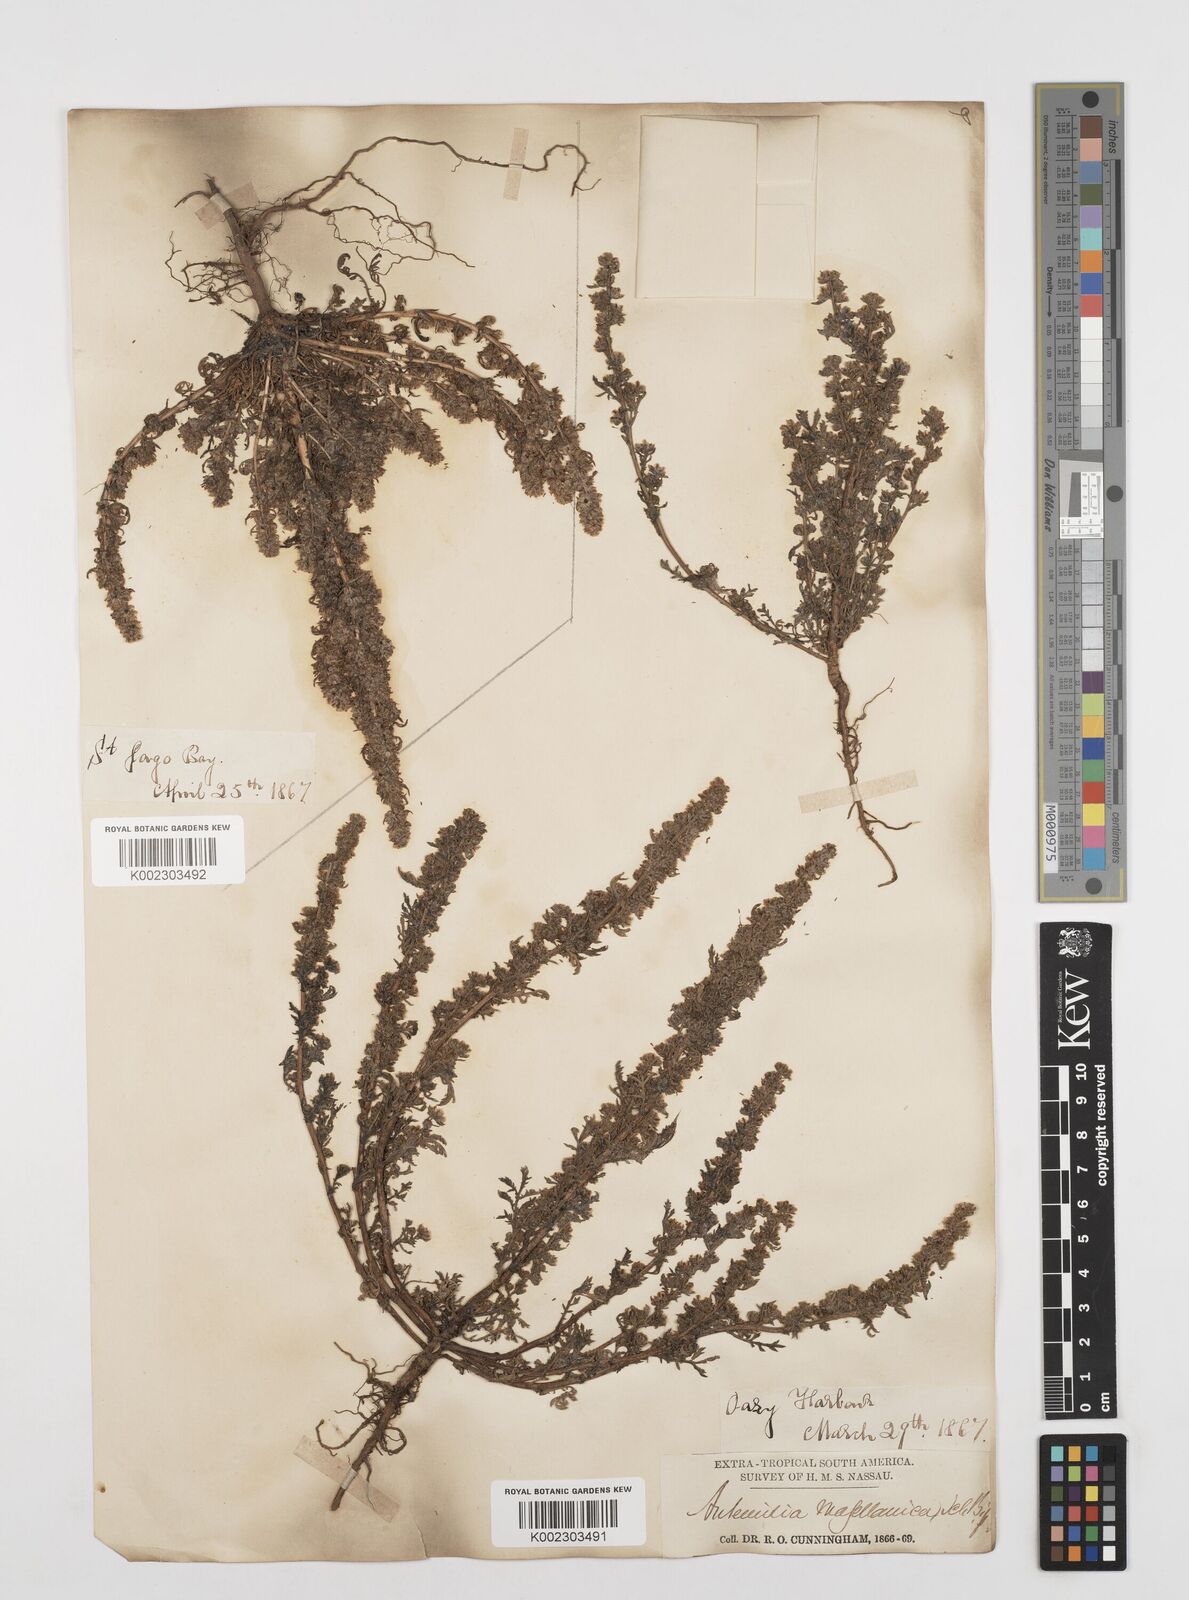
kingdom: Plantae
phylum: Tracheophyta
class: Magnoliopsida
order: Asterales
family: Asteraceae
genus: Artemisia
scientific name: Artemisia
